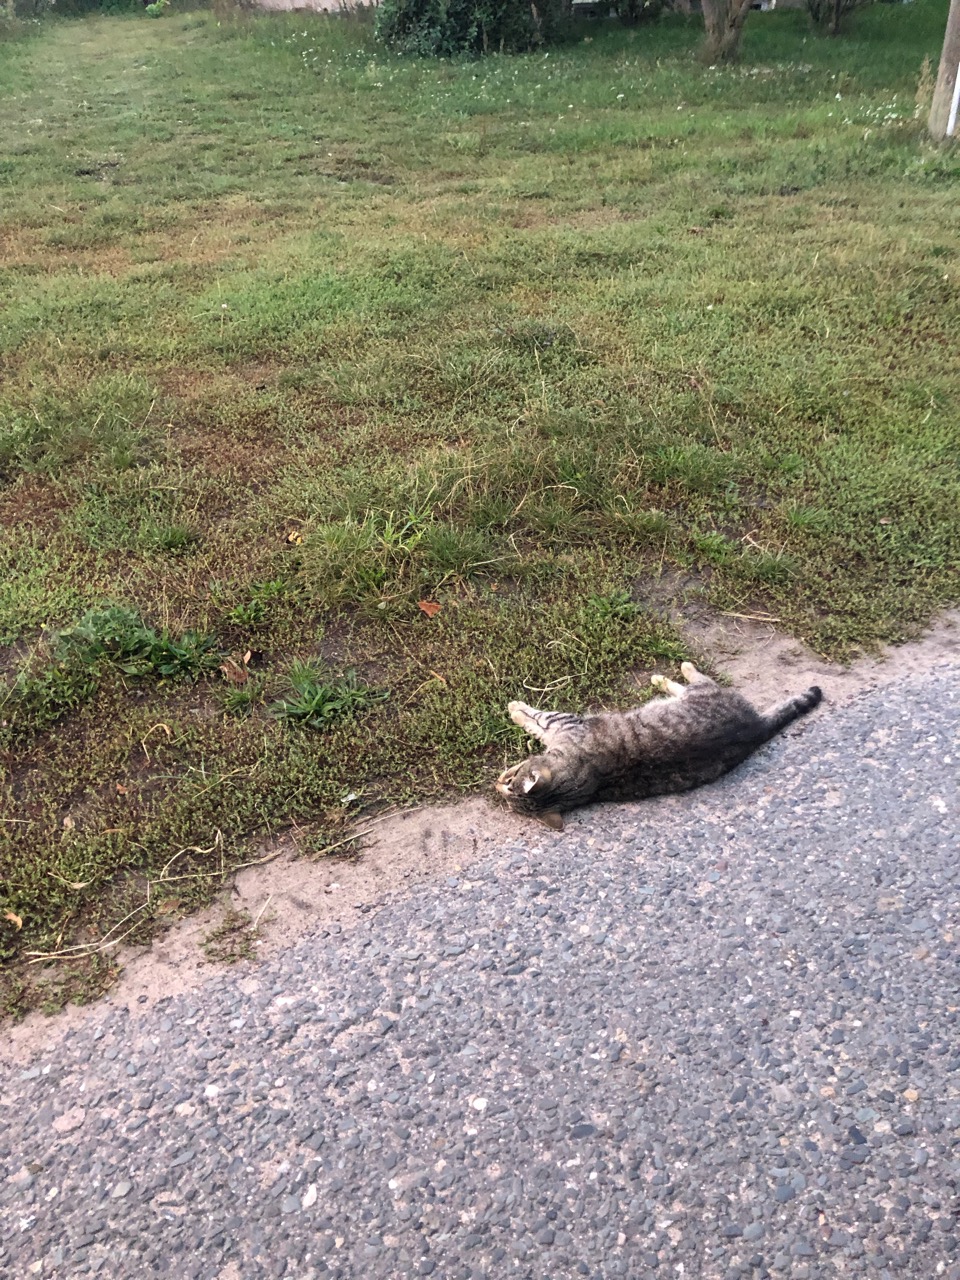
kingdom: Animalia
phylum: Chordata
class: Mammalia
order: Carnivora
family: Felidae
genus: Felis
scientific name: Felis catus
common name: Domestic cat
